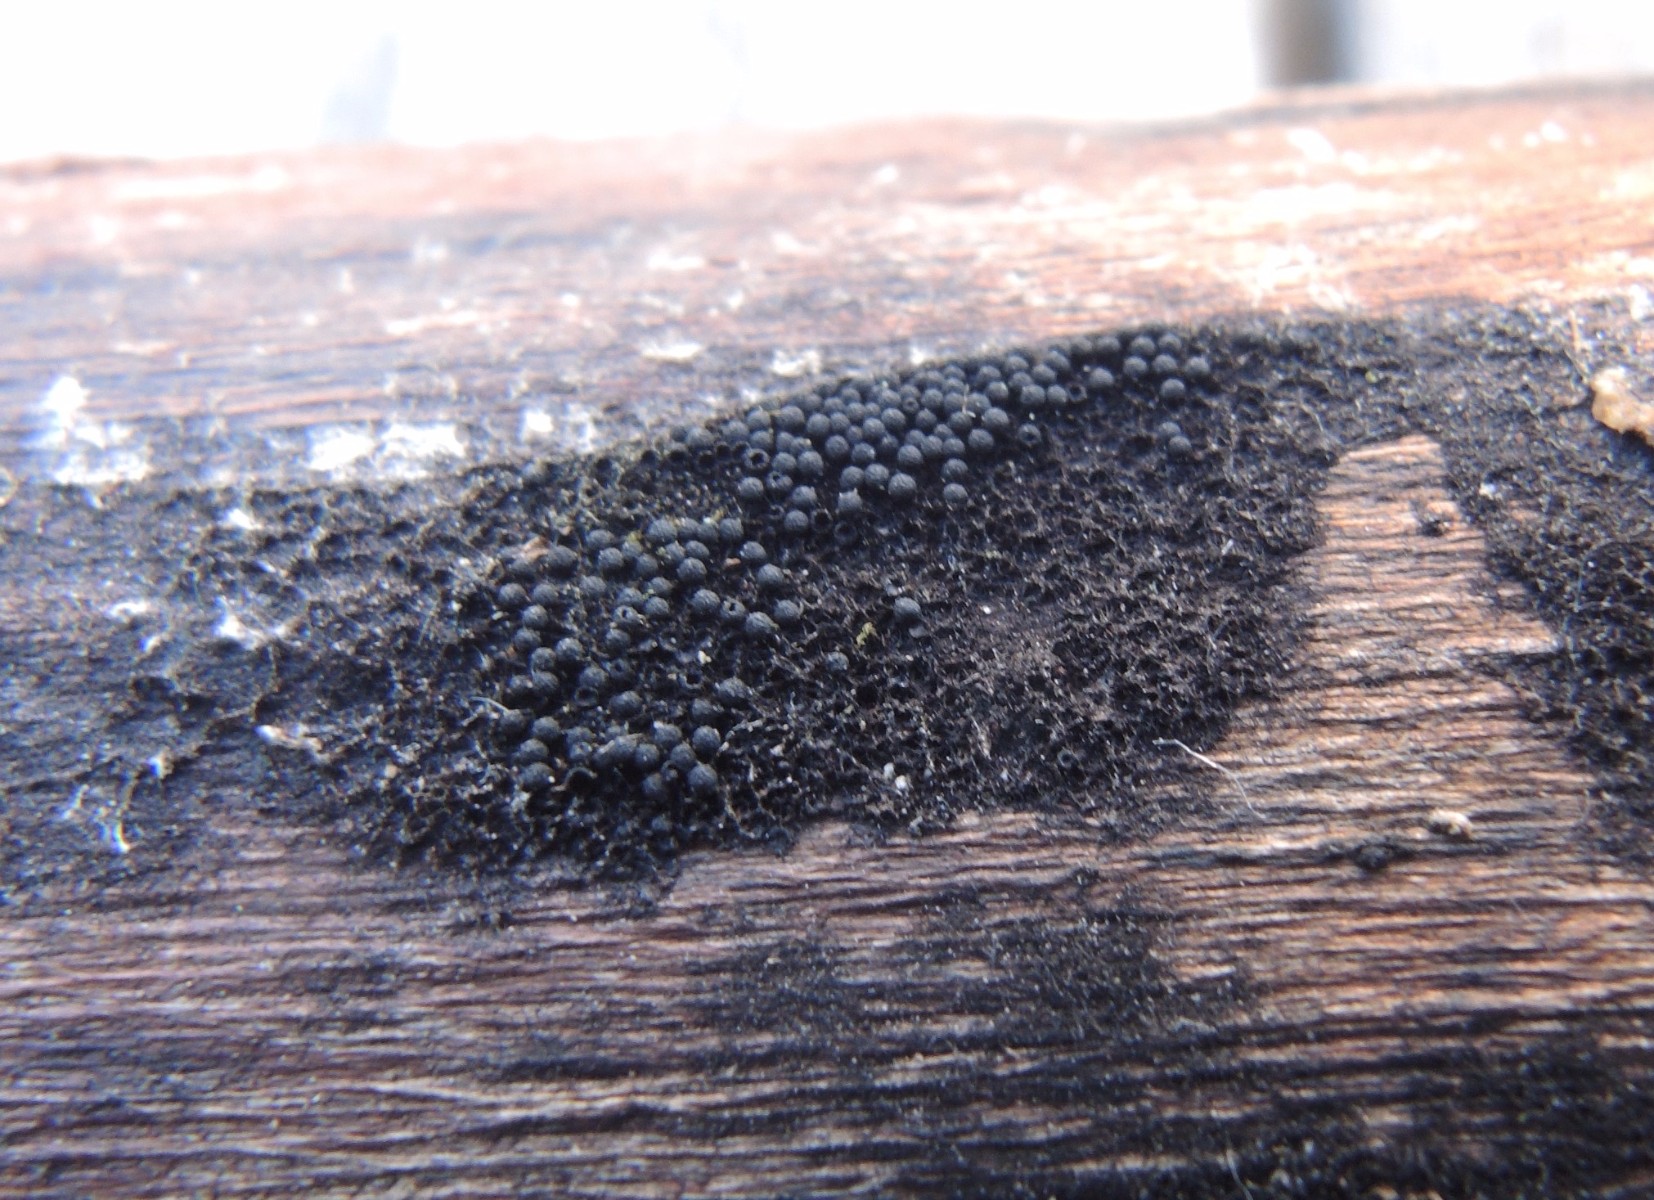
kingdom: Fungi
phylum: Ascomycota
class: Sordariomycetes
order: Coronophorales
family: Chaetosphaerellaceae
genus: Chaetosphaerella
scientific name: Chaetosphaerella phaeostroma
